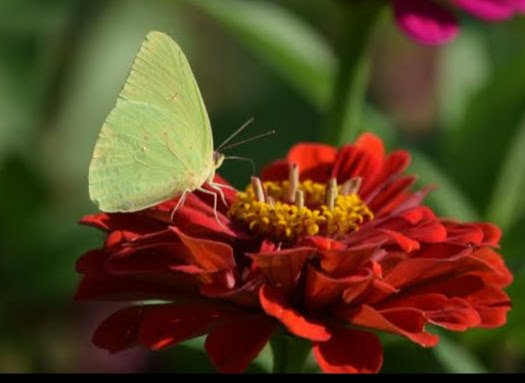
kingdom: Animalia
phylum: Arthropoda
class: Insecta
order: Lepidoptera
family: Pieridae
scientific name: Pieridae
